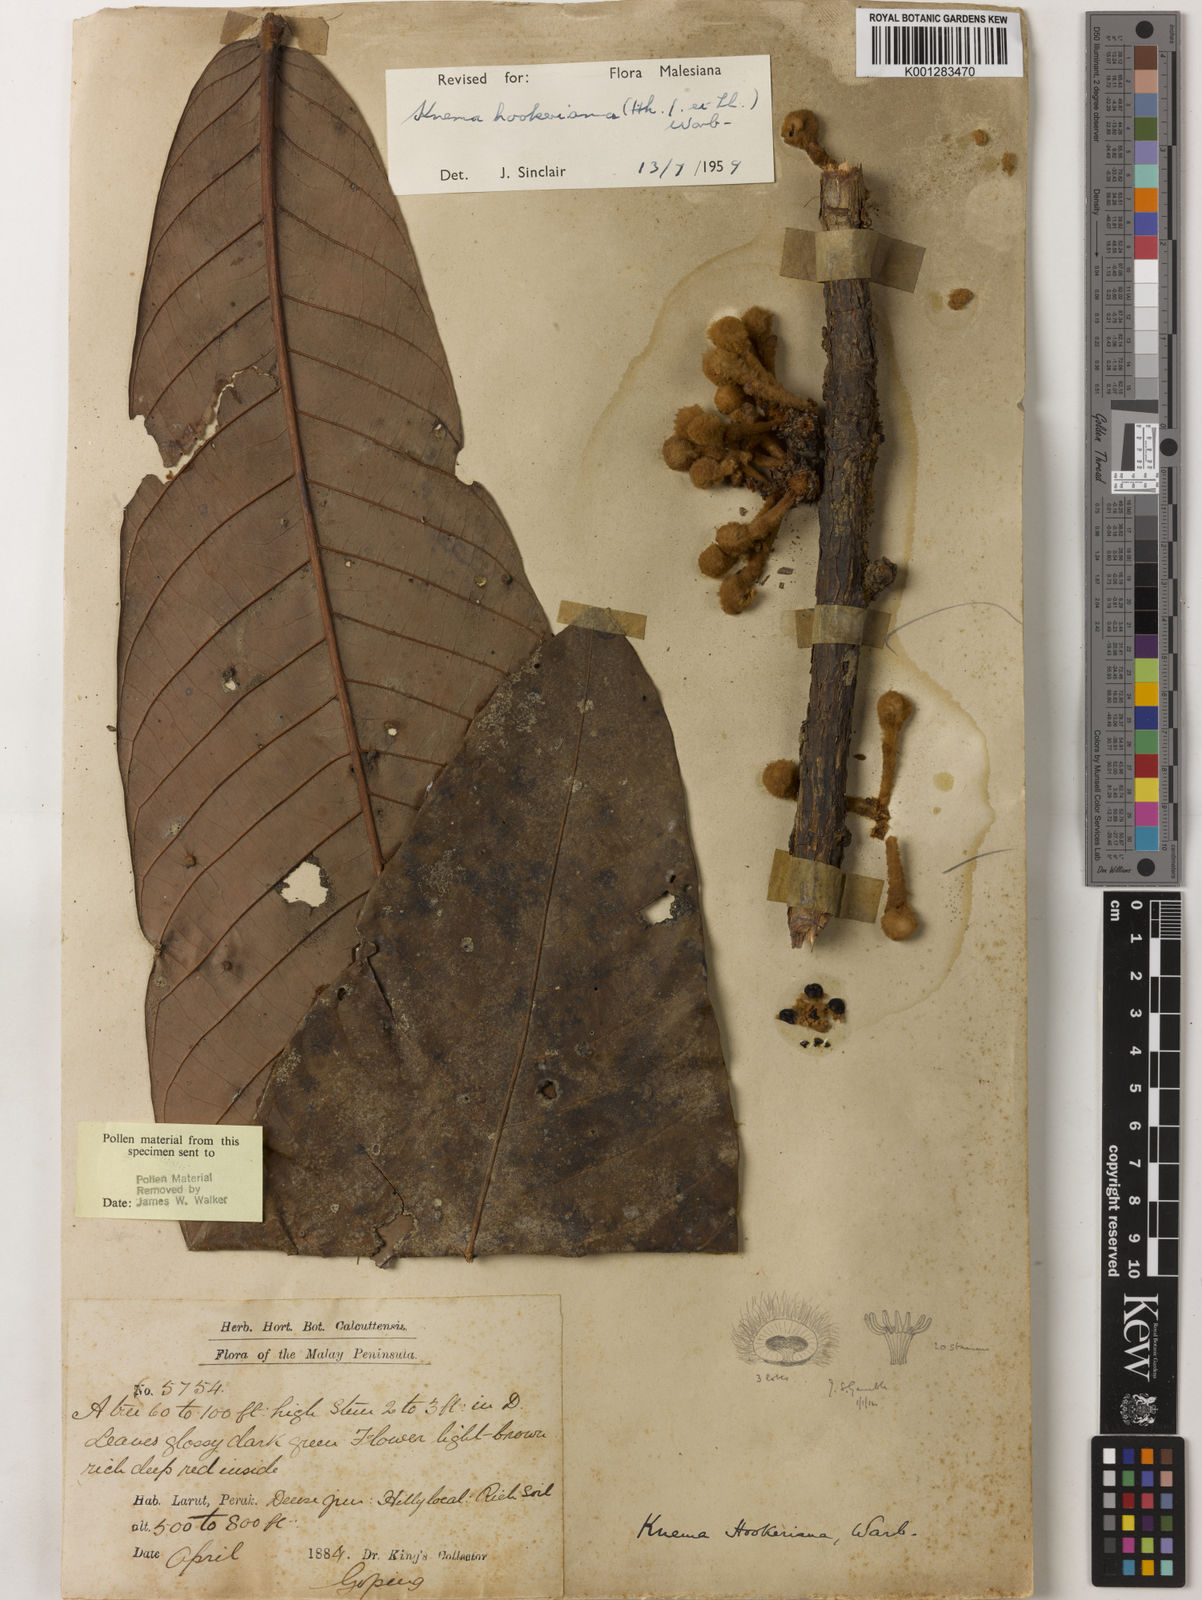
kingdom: Plantae
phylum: Tracheophyta
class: Magnoliopsida
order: Magnoliales
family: Myristicaceae
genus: Knema
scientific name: Knema hookeriana
